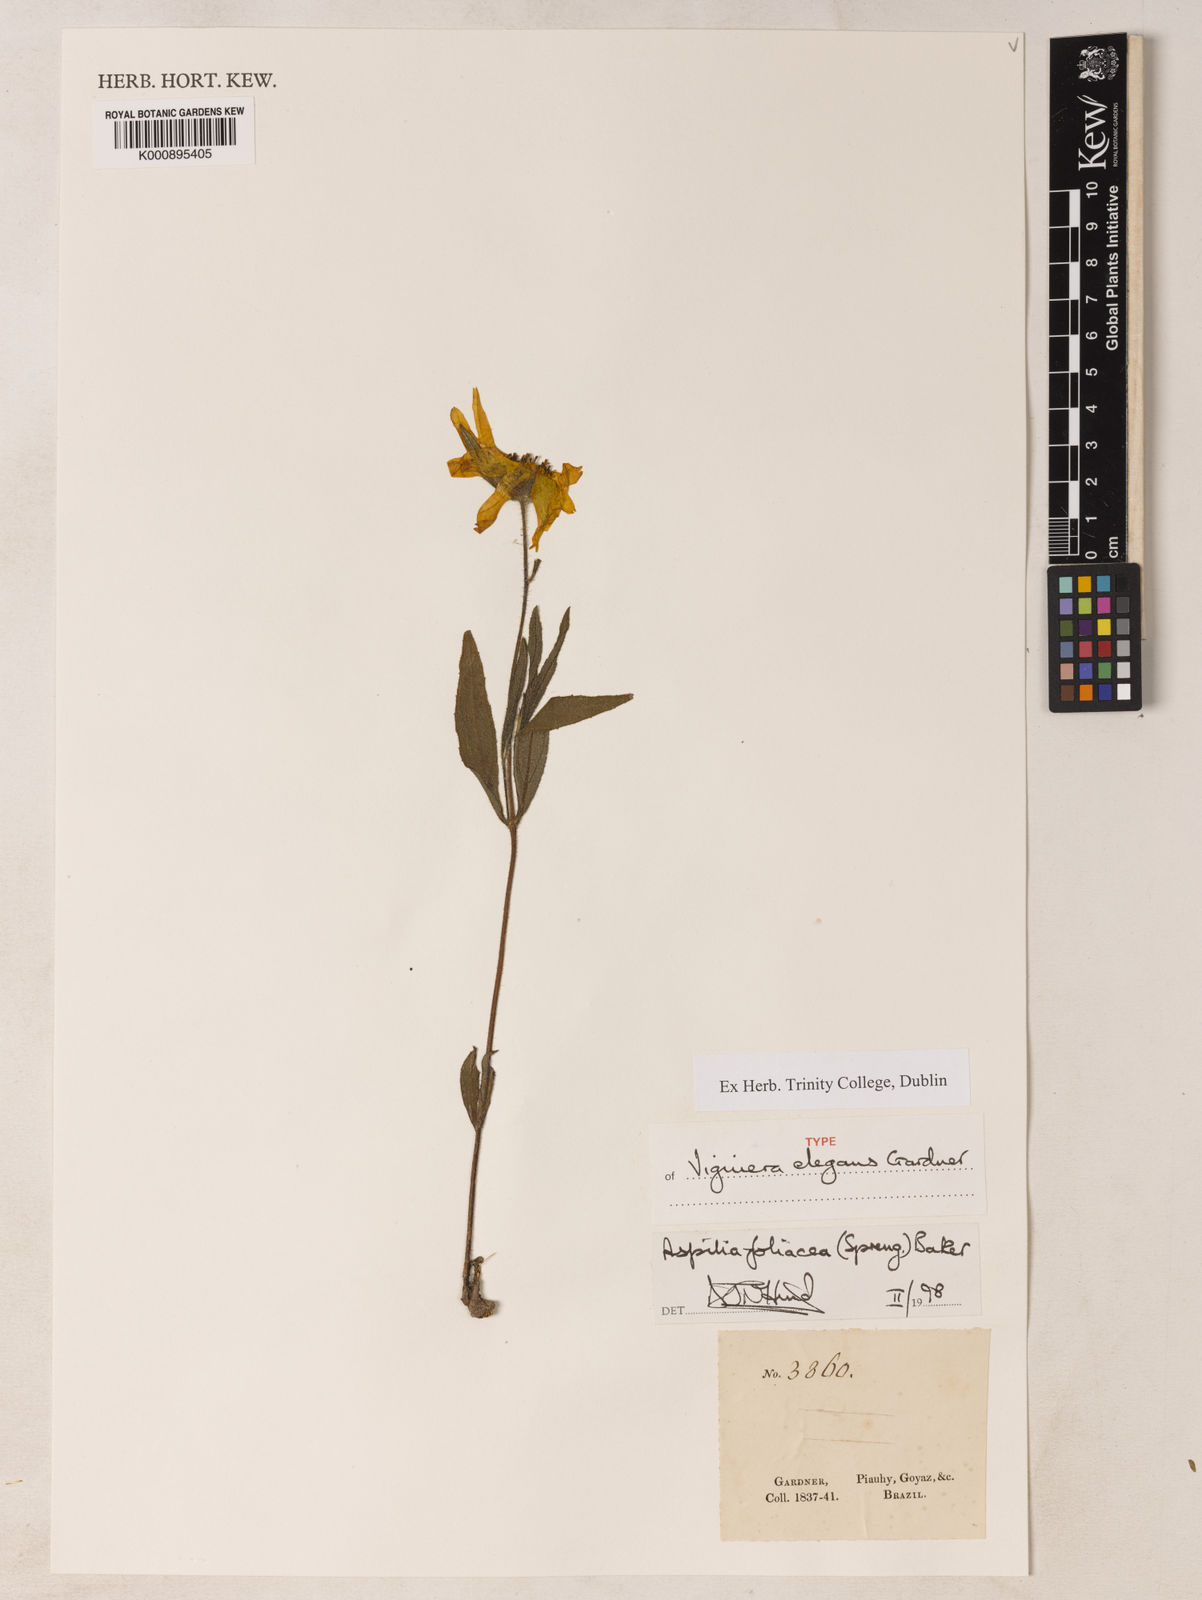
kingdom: Plantae
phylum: Tracheophyta
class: Magnoliopsida
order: Asterales
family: Asteraceae
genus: Wedelia
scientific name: Wedelia foliacea
